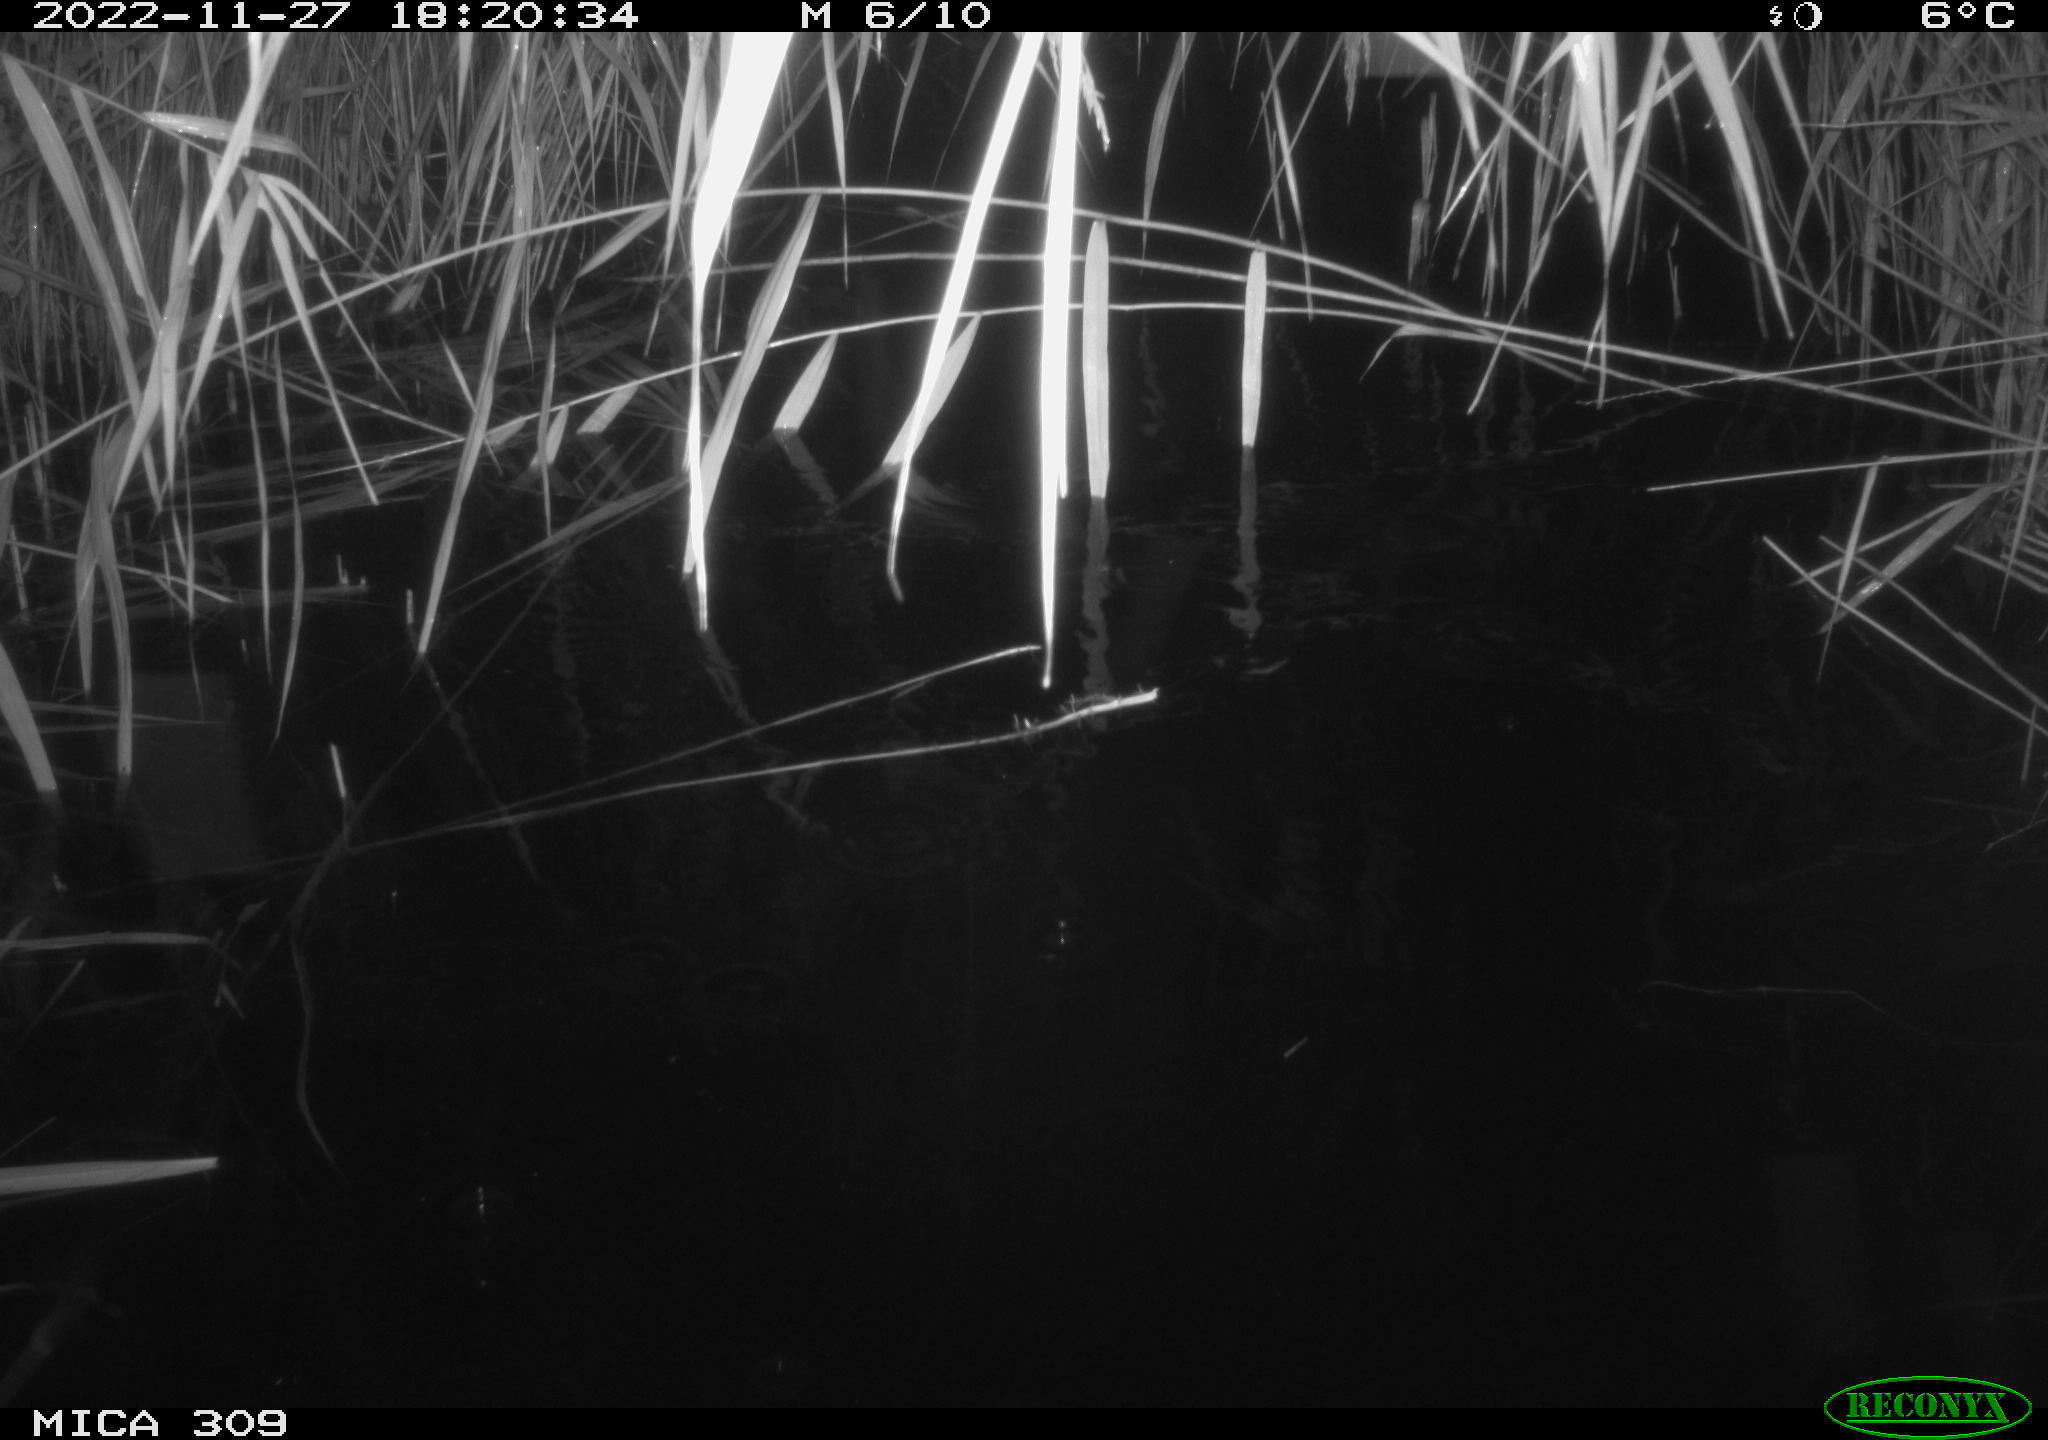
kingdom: Animalia
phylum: Chordata
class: Mammalia
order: Rodentia
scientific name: Rodentia
